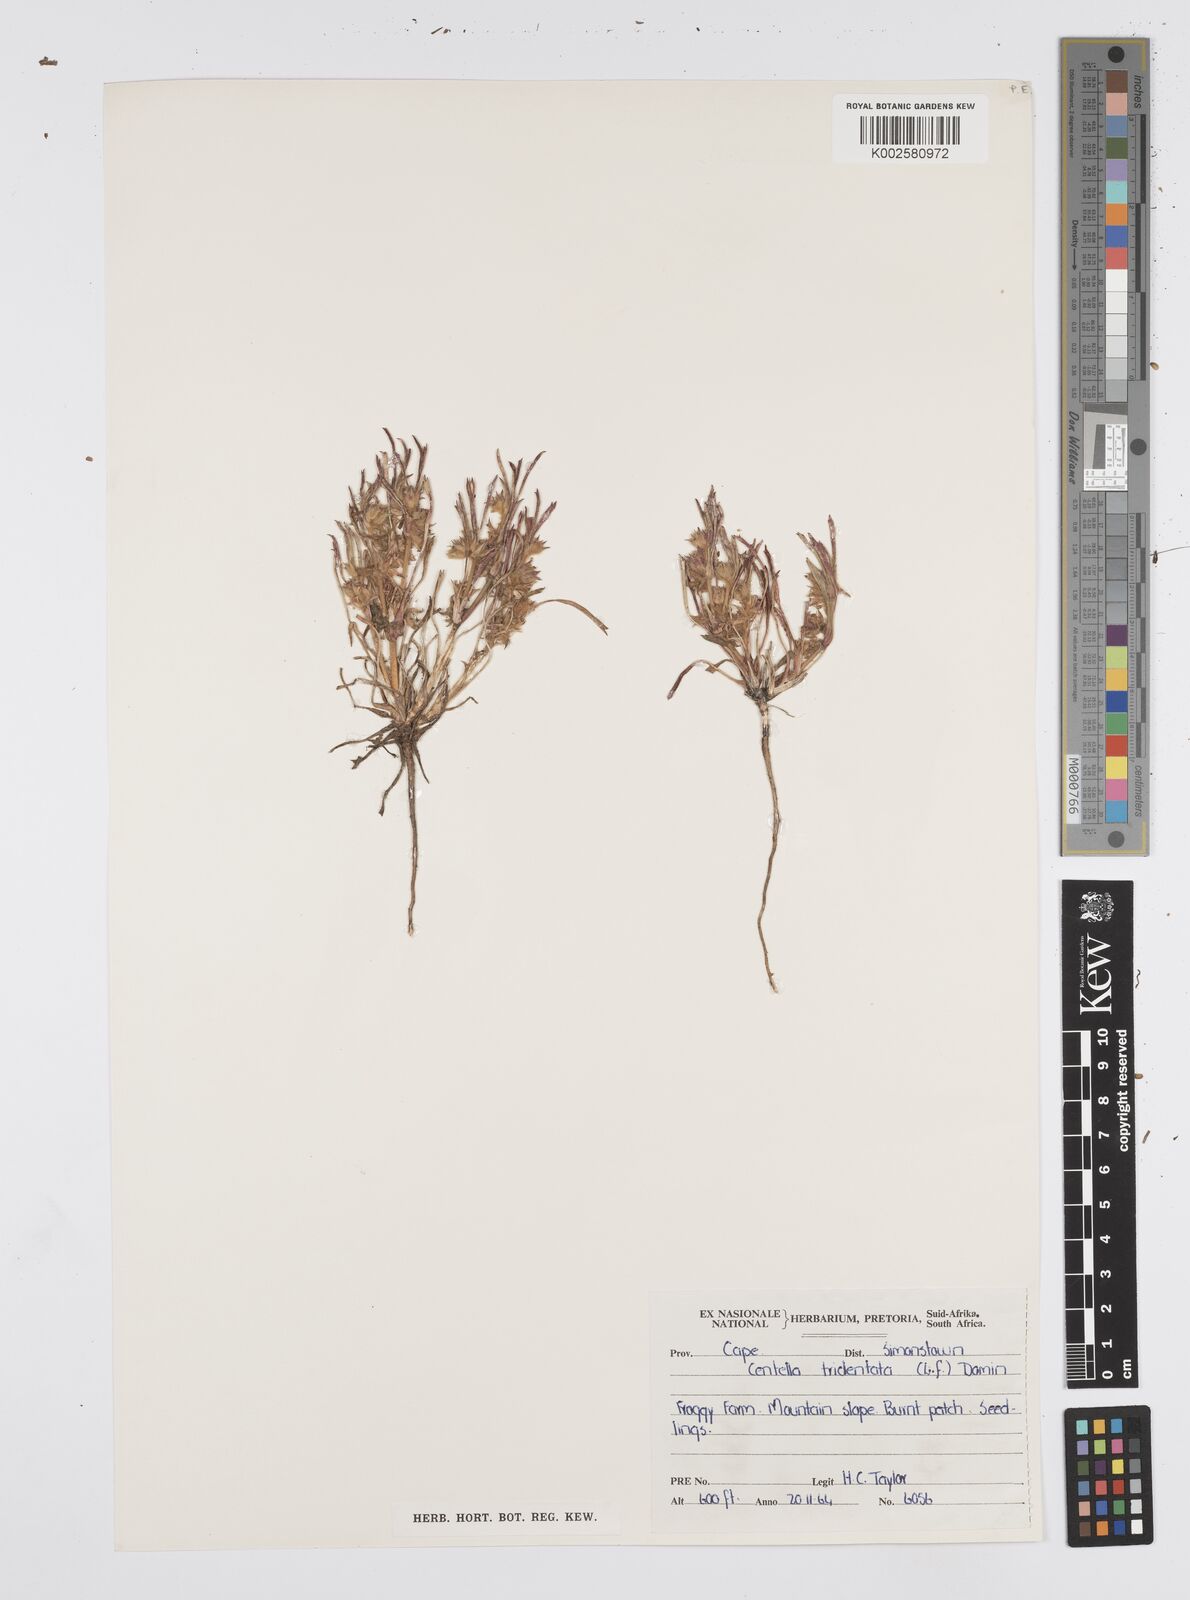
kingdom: Plantae
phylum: Tracheophyta
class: Magnoliopsida
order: Apiales
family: Apiaceae
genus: Centella
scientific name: Centella tridentata
